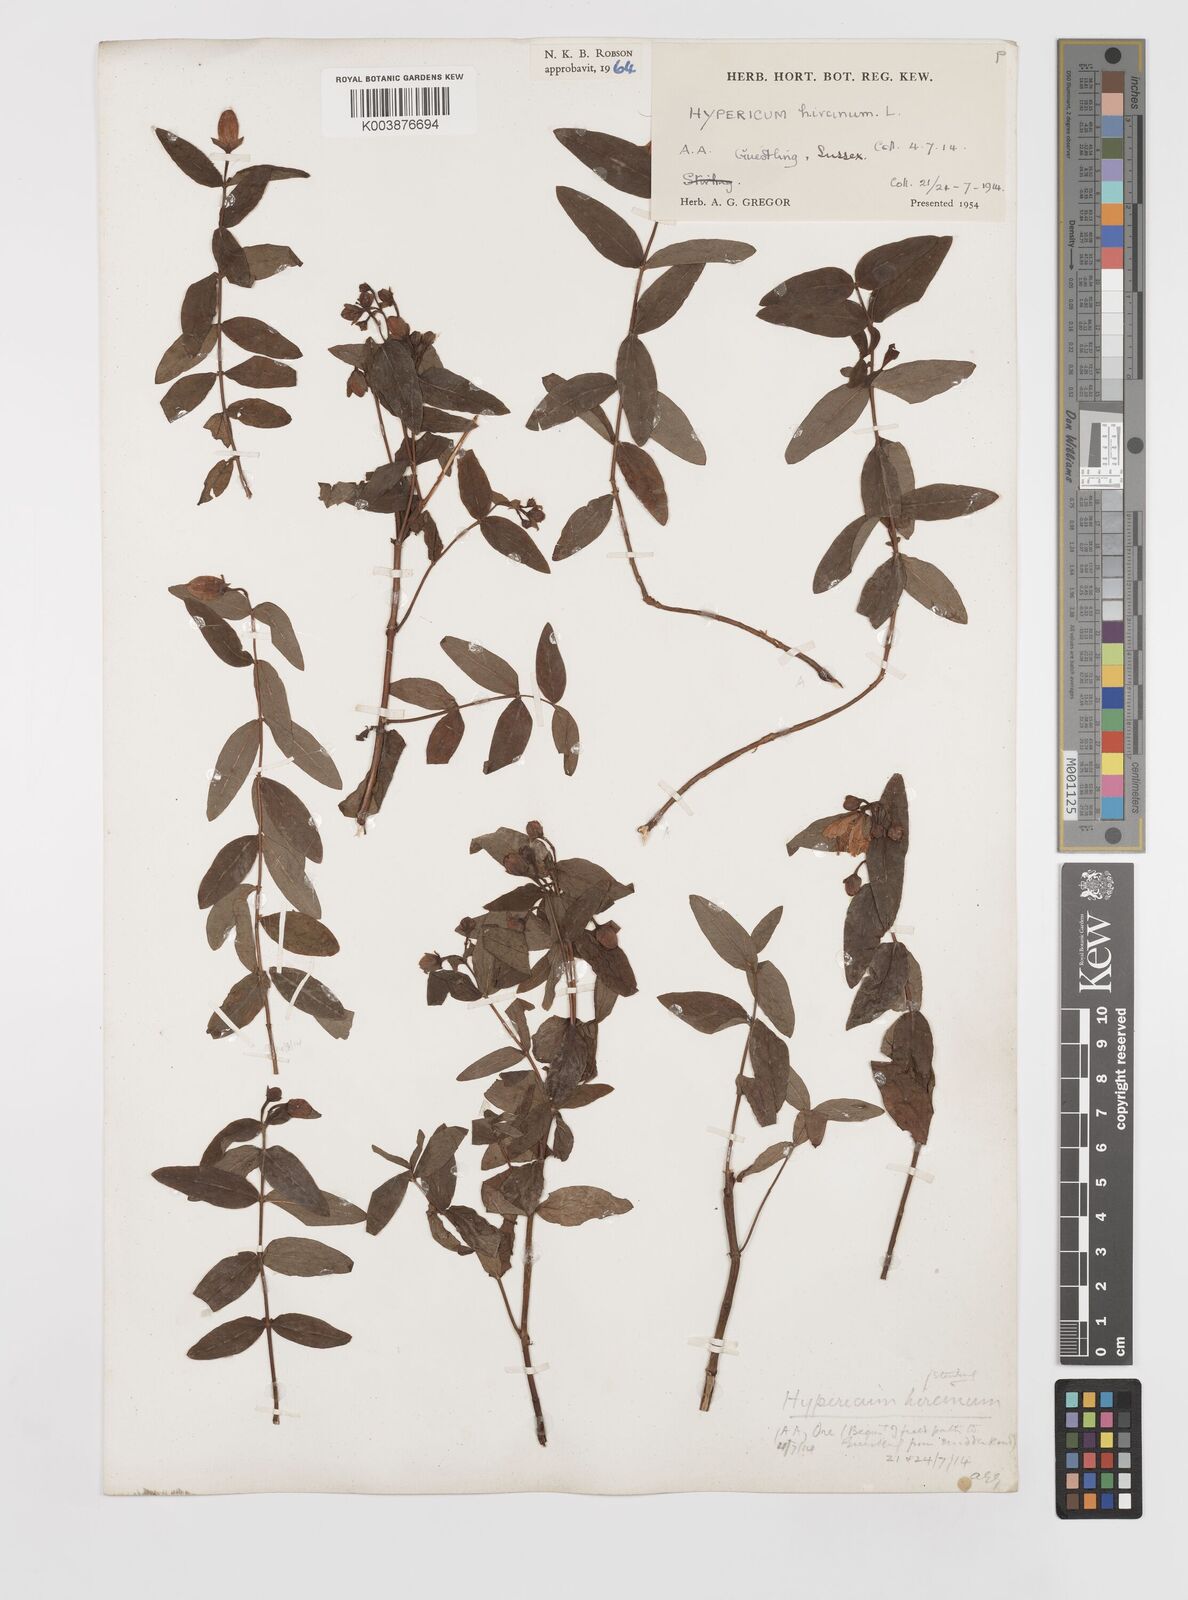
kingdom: Plantae
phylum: Tracheophyta
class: Magnoliopsida
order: Malpighiales
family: Hypericaceae
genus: Hypericum
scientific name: Hypericum hircinum
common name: Stinking tutsan
